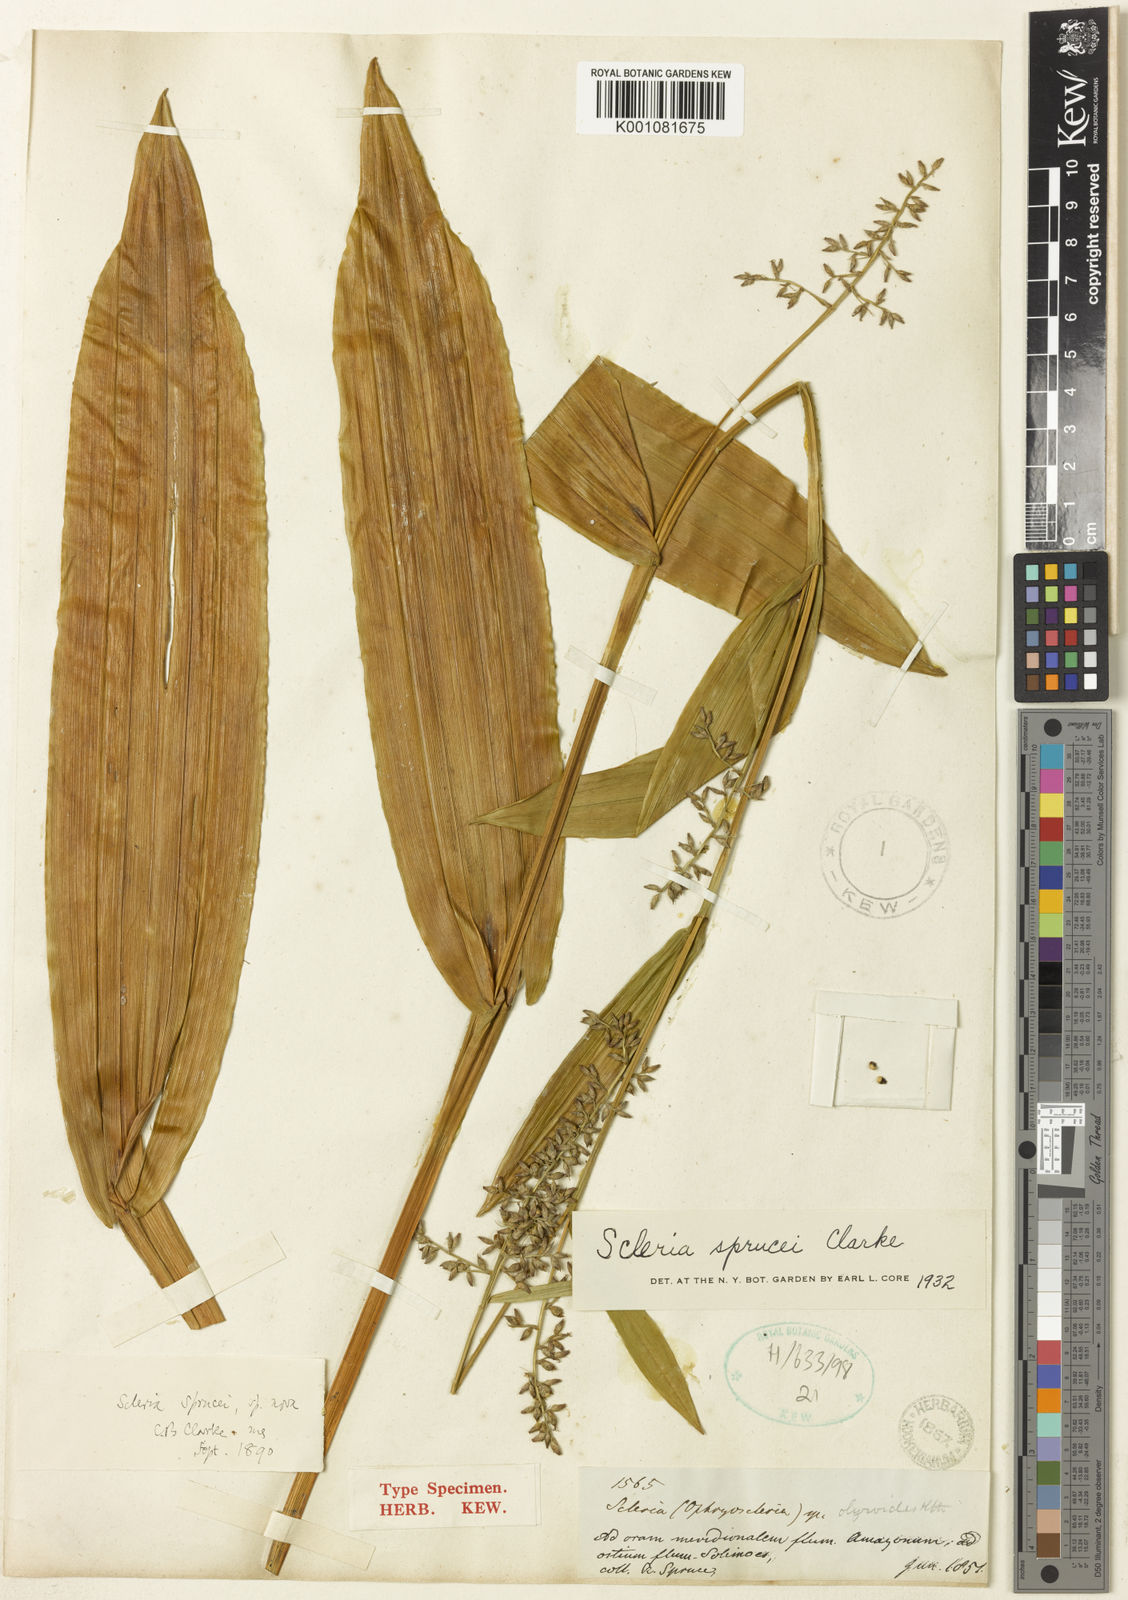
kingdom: Plantae
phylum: Tracheophyta
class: Liliopsida
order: Poales
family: Cyperaceae
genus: Scleria
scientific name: Scleria sprucei
